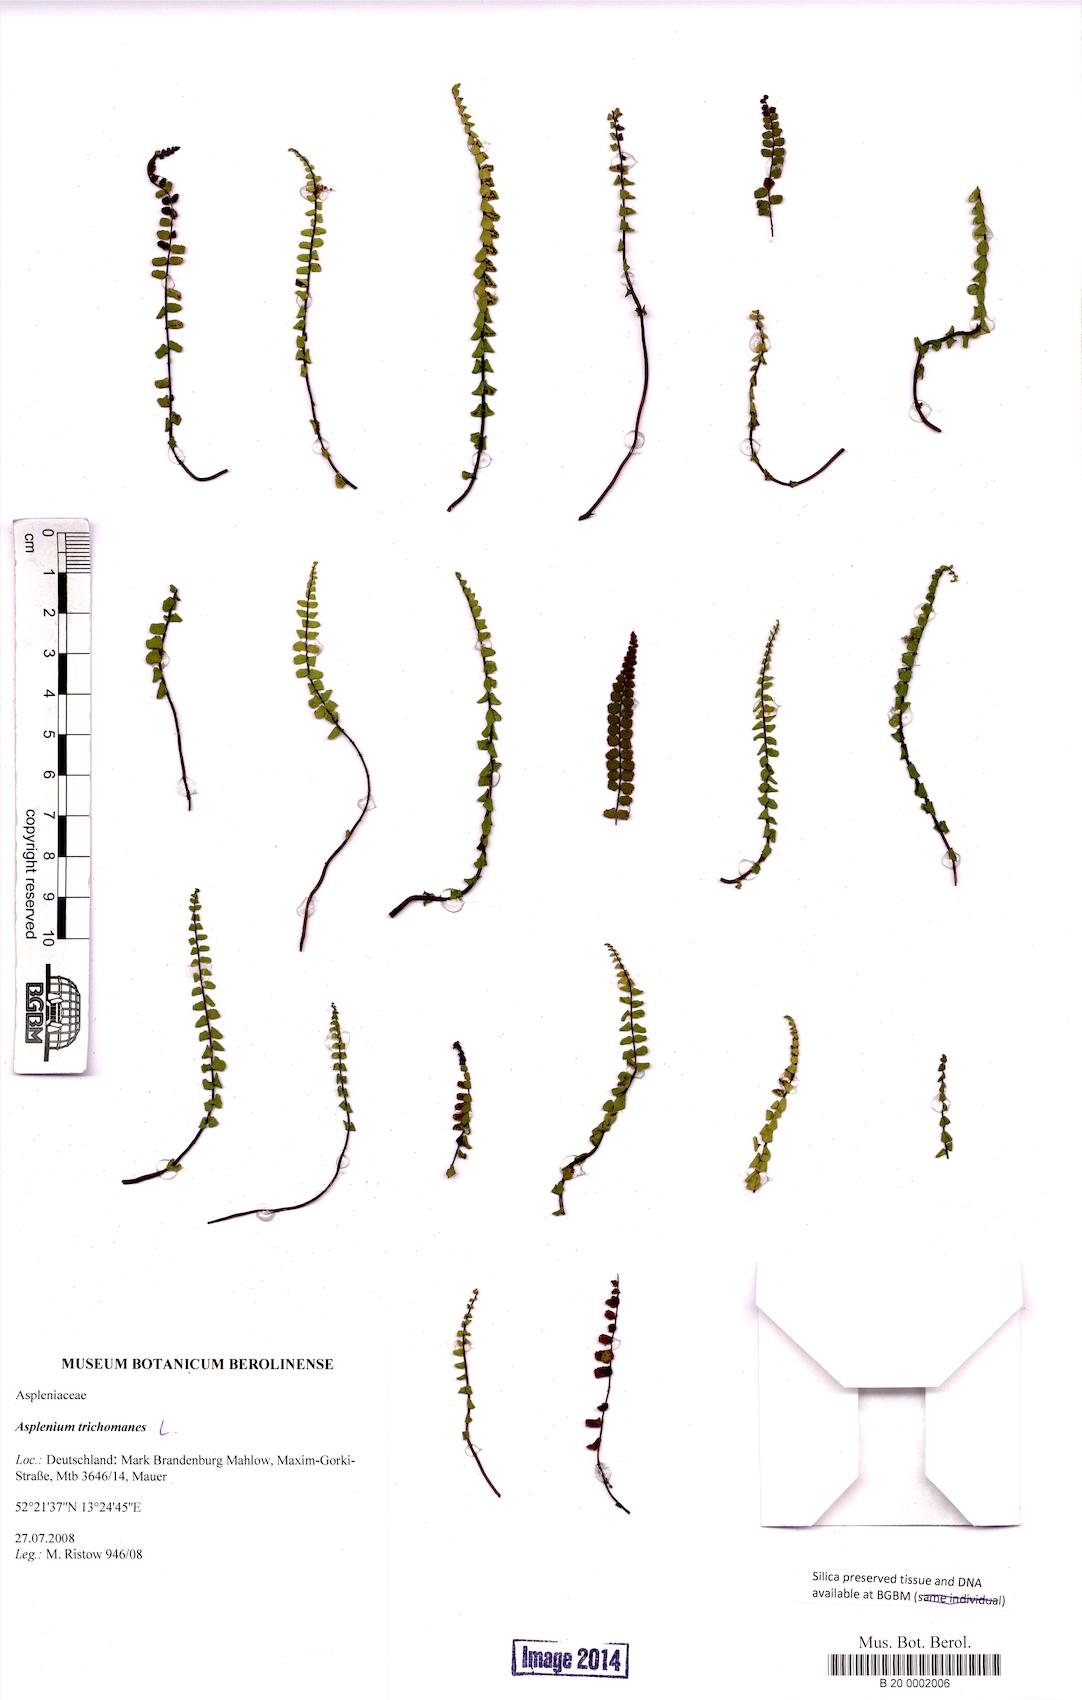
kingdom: Plantae
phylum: Tracheophyta
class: Polypodiopsida
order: Polypodiales
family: Aspleniaceae
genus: Asplenium
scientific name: Asplenium trichomanes
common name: Maidenhair spleenwort
